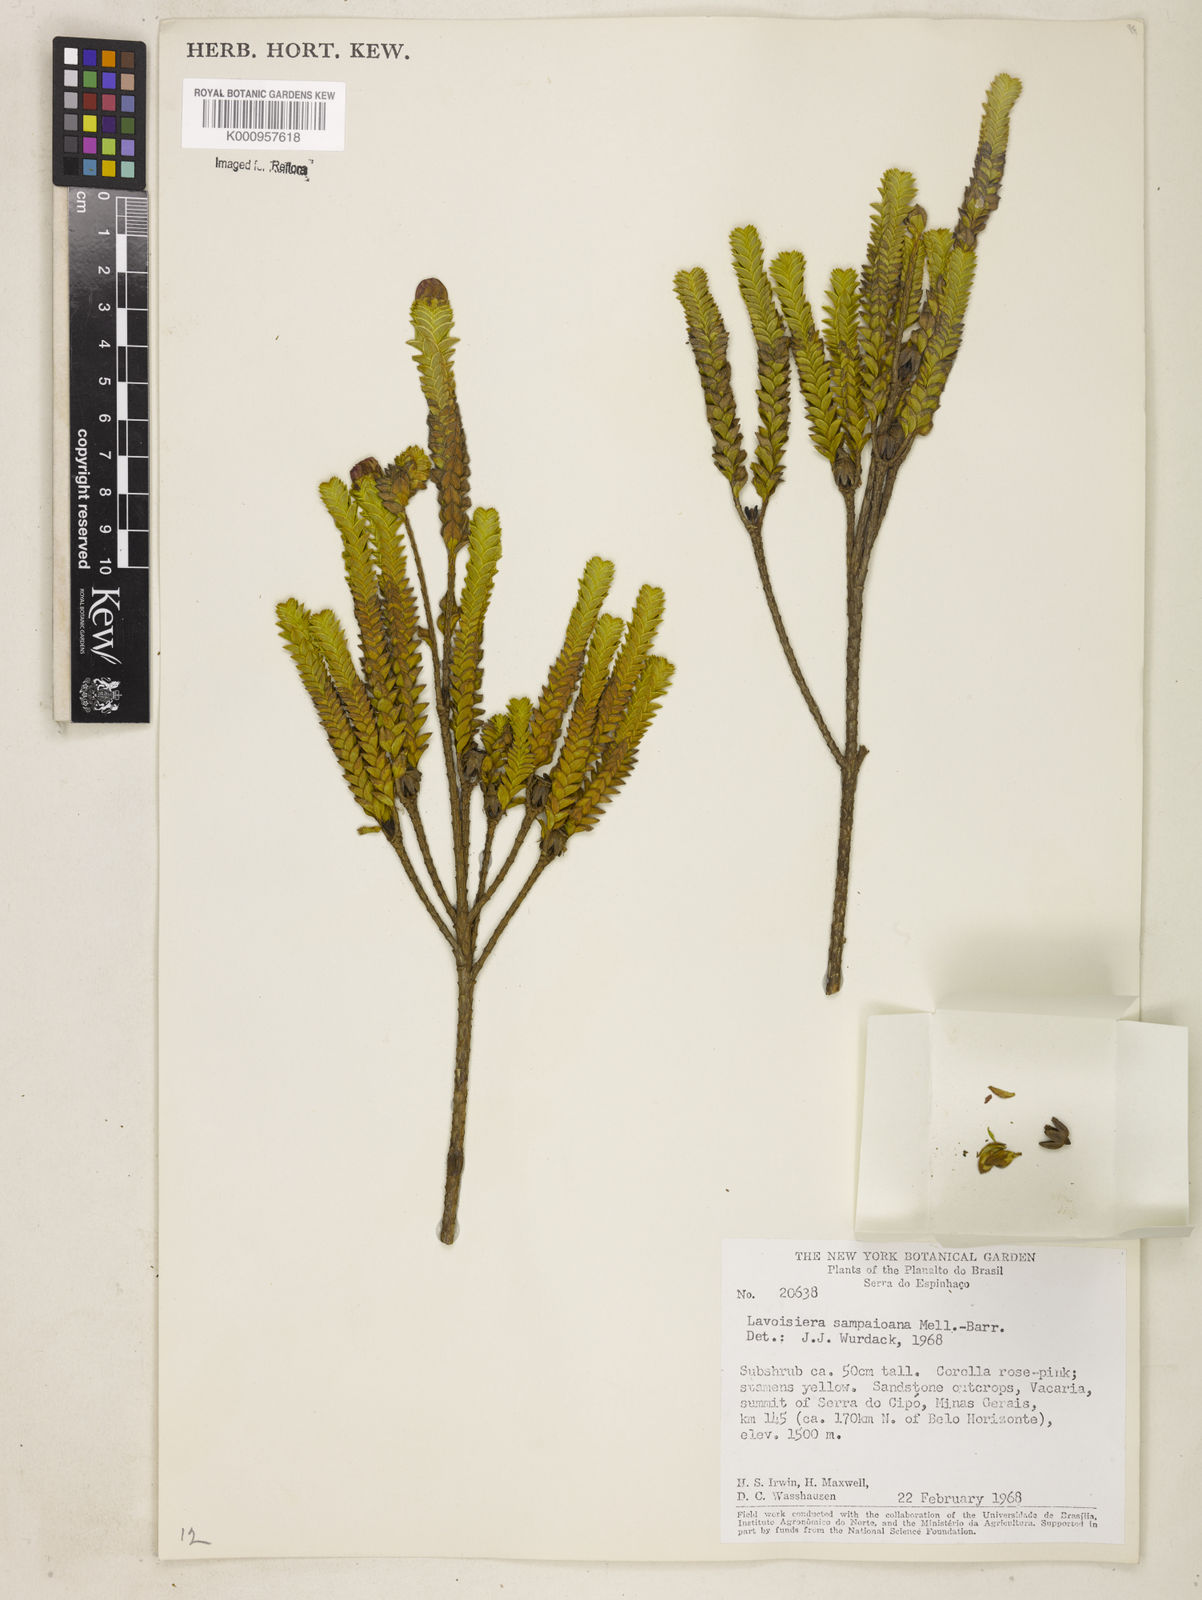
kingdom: Plantae
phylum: Tracheophyta
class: Magnoliopsida
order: Myrtales
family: Melastomataceae
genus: Microlicia
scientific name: Microlicia
